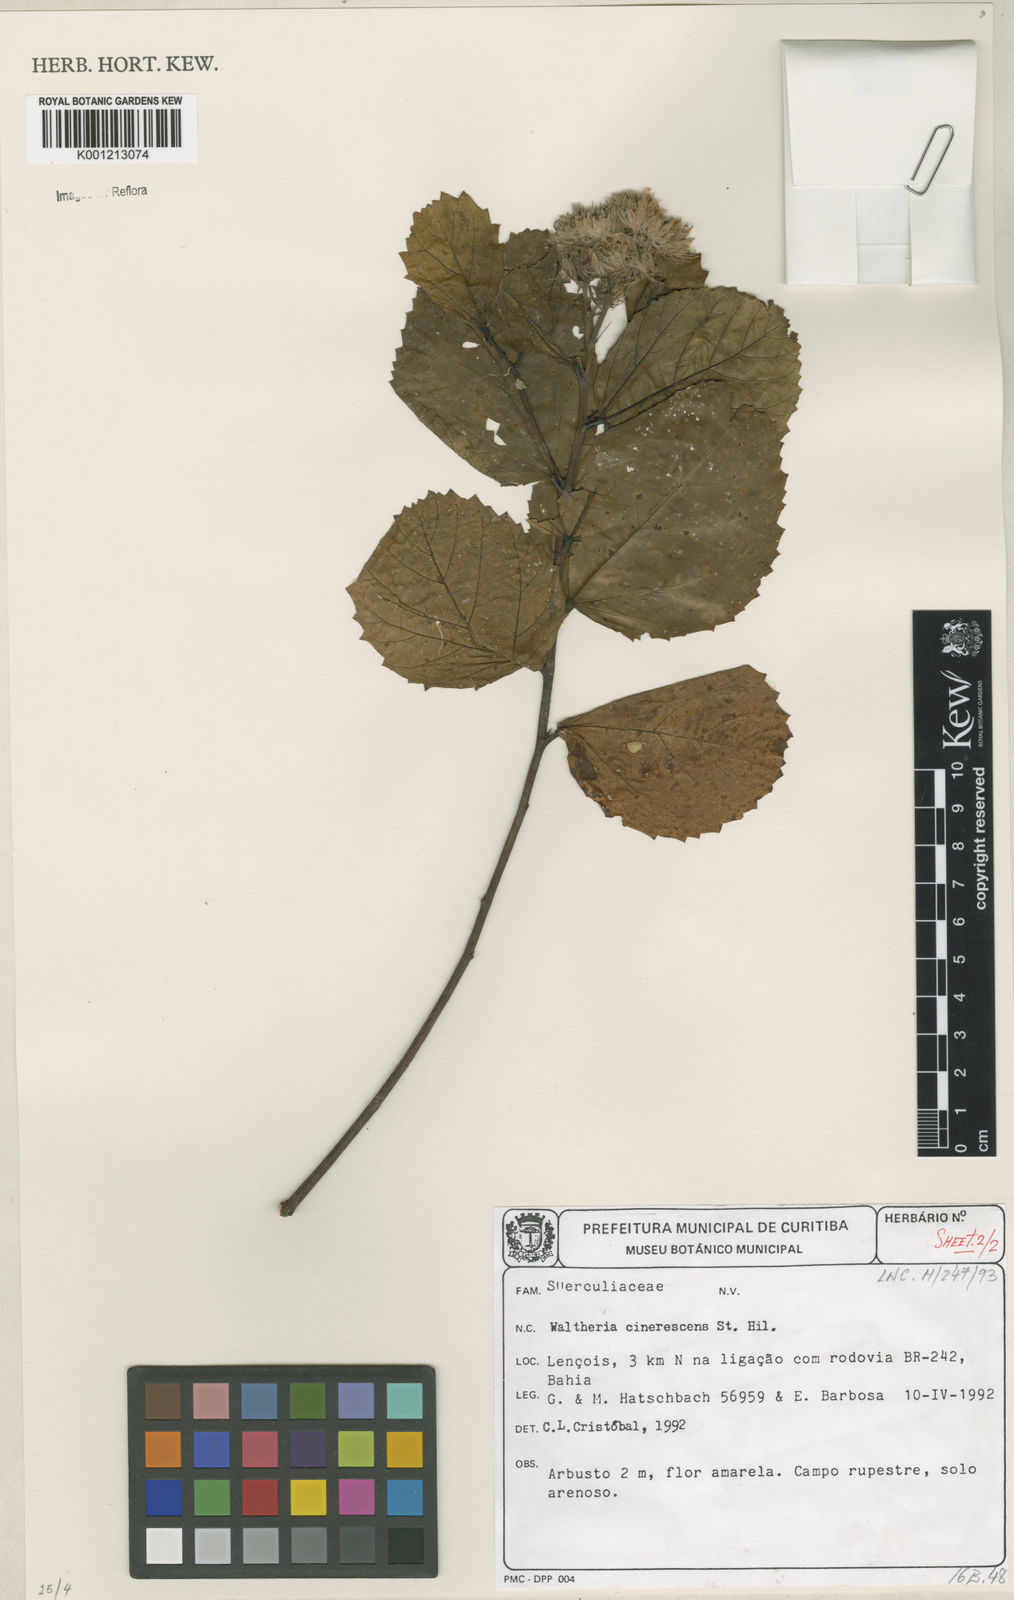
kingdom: Plantae
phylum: Tracheophyta
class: Magnoliopsida
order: Malvales
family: Malvaceae
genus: Waltheria
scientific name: Waltheria cinerescens
